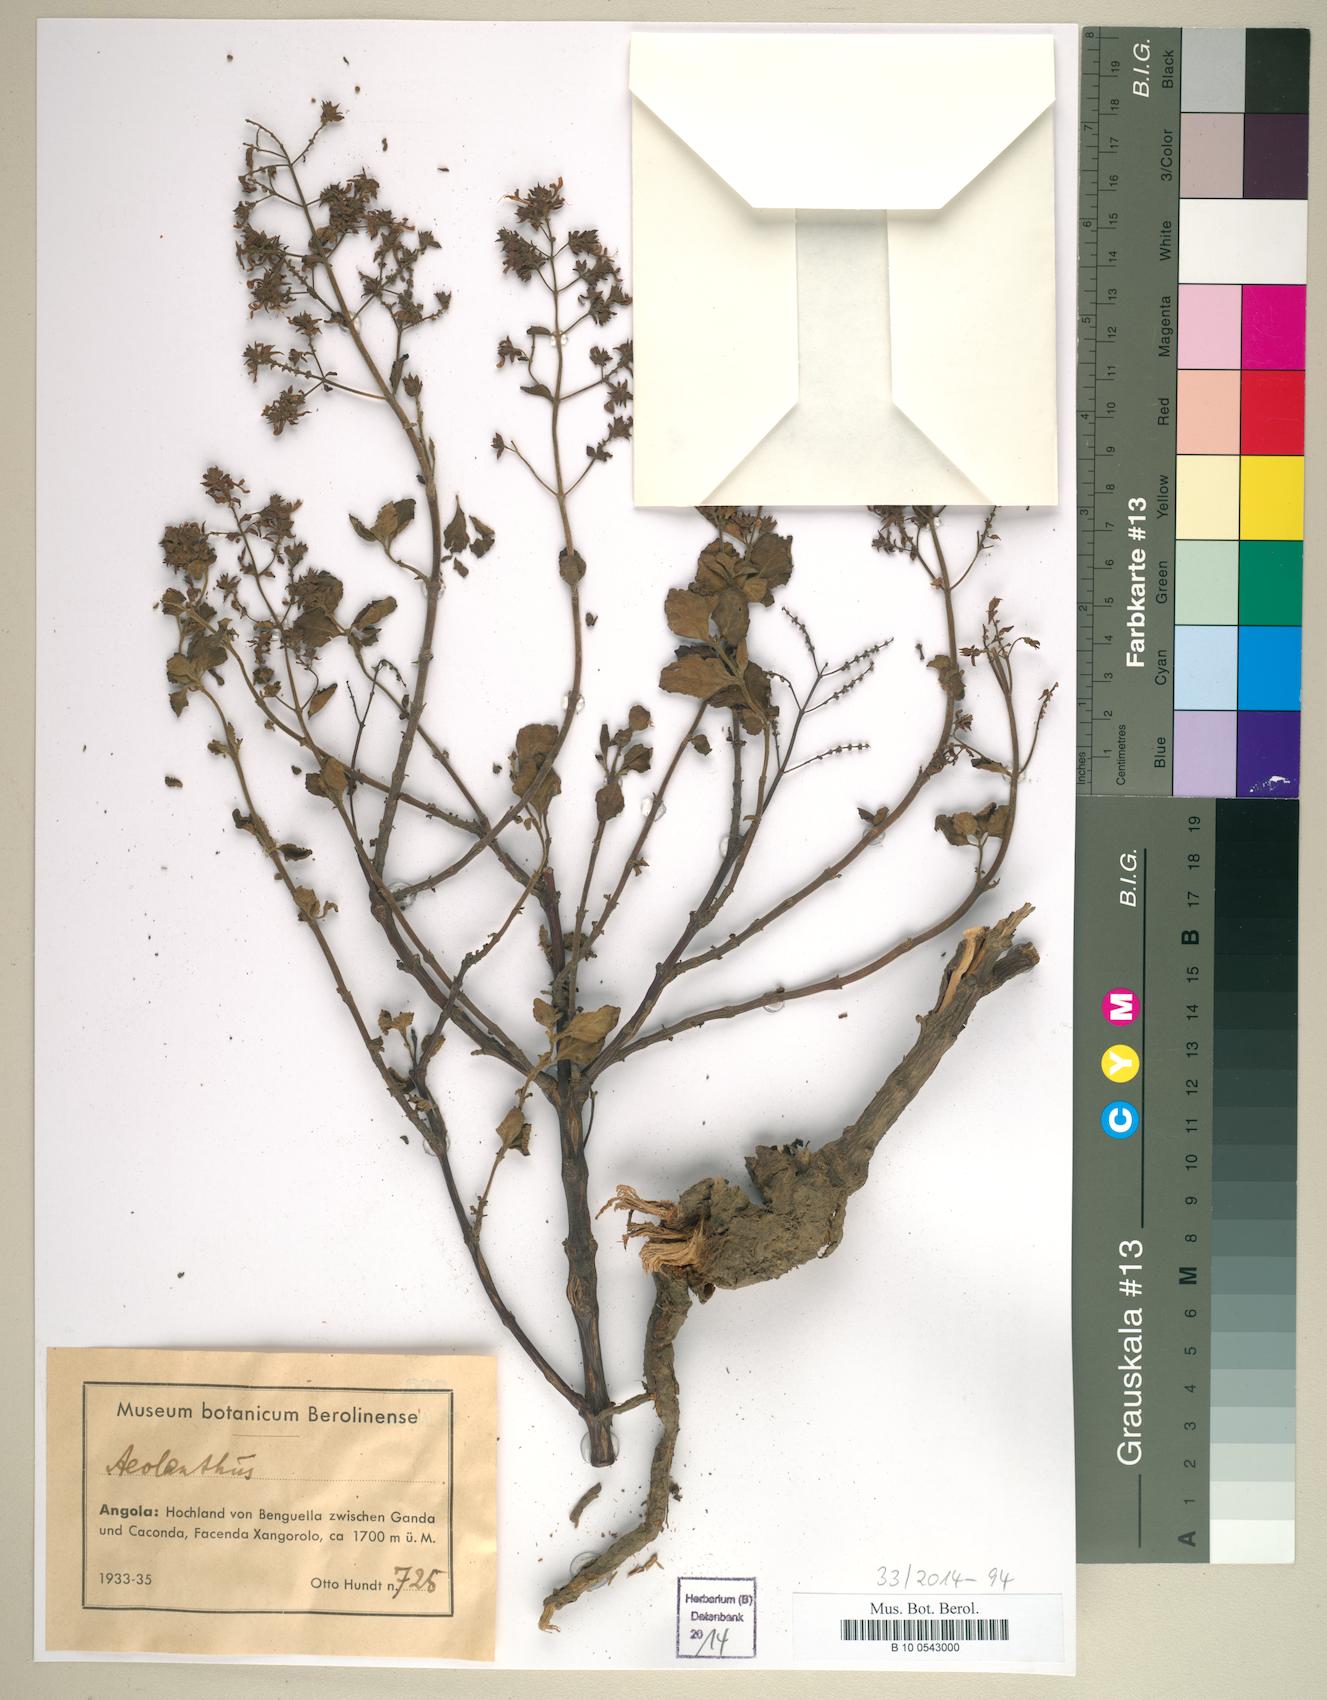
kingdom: Plantae
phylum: Tracheophyta
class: Magnoliopsida
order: Lamiales
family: Lamiaceae
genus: Aeollanthus
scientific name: Aeollanthus
